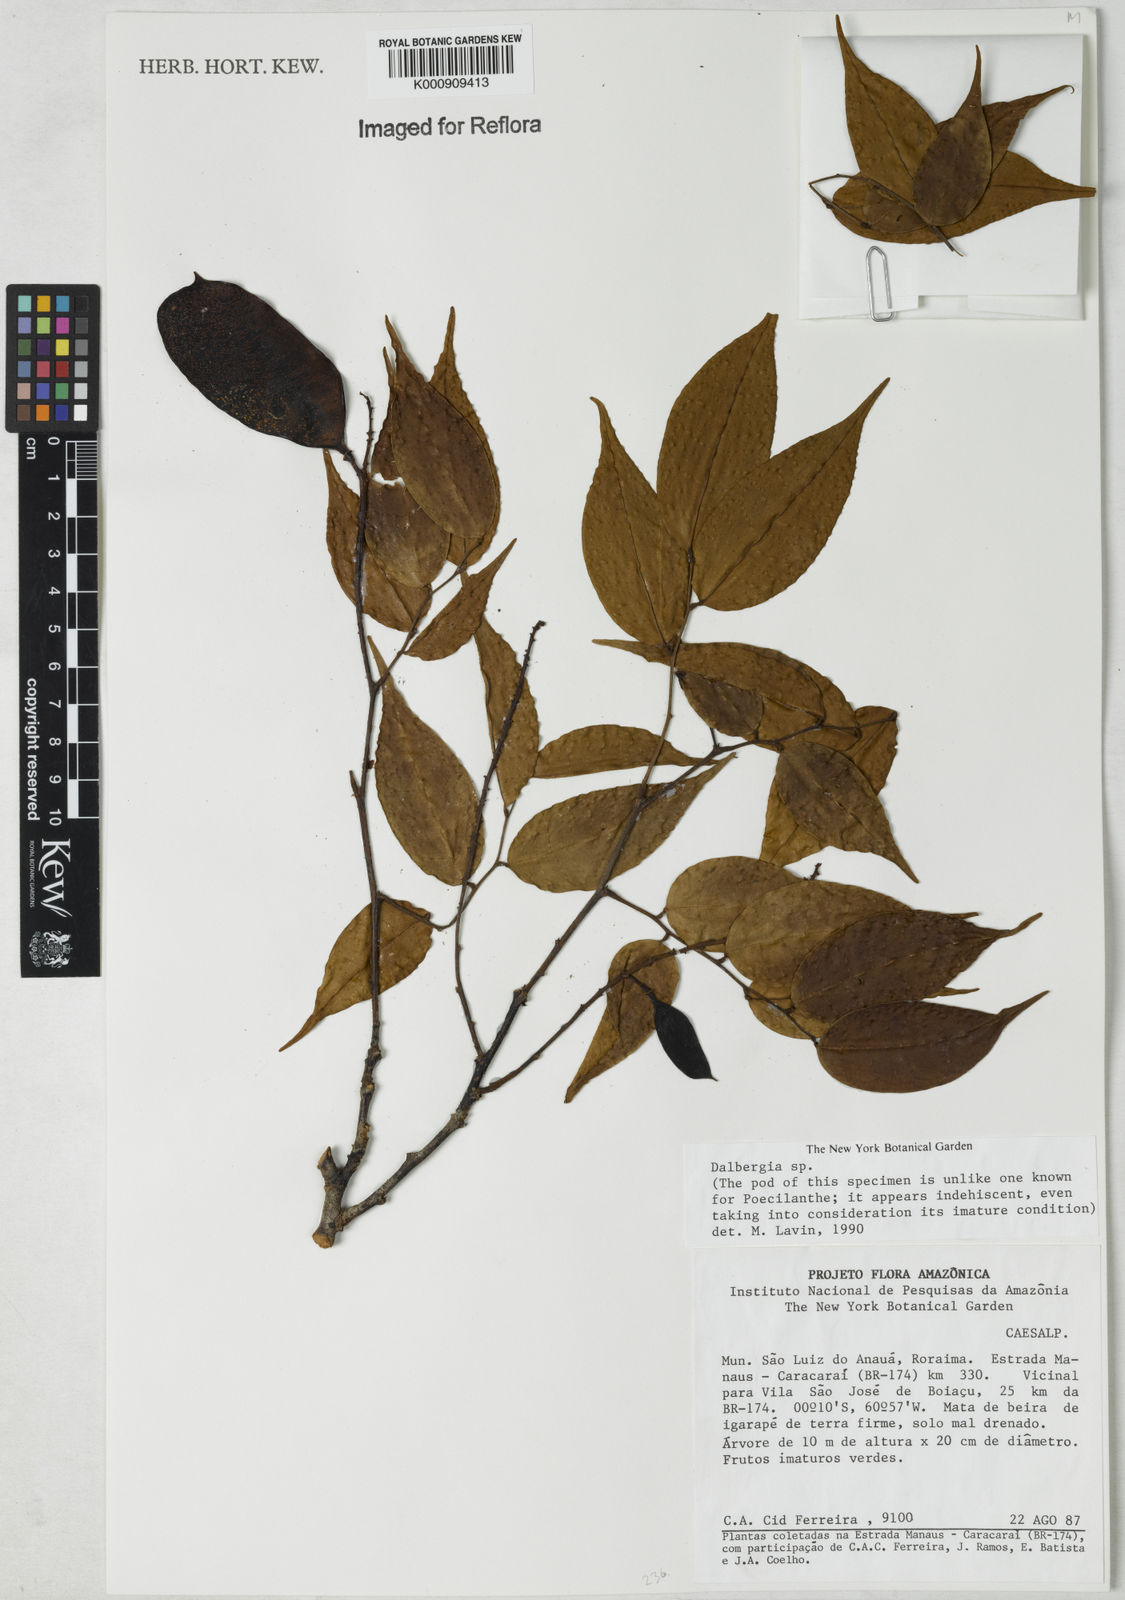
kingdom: Plantae
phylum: Tracheophyta
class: Magnoliopsida
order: Fabales
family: Fabaceae
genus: Dalbergia
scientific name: Dalbergia
